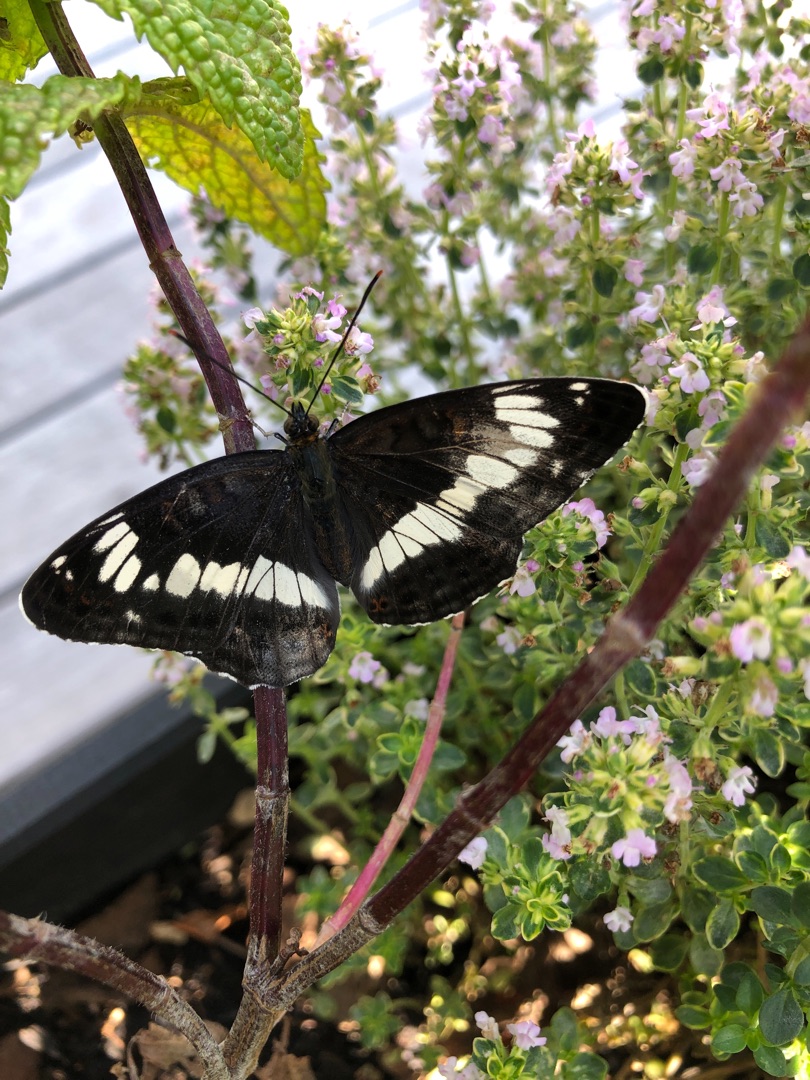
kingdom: Animalia
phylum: Arthropoda
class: Insecta
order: Lepidoptera
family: Nymphalidae
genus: Ladoga
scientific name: Ladoga camilla
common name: Hvid admiral
